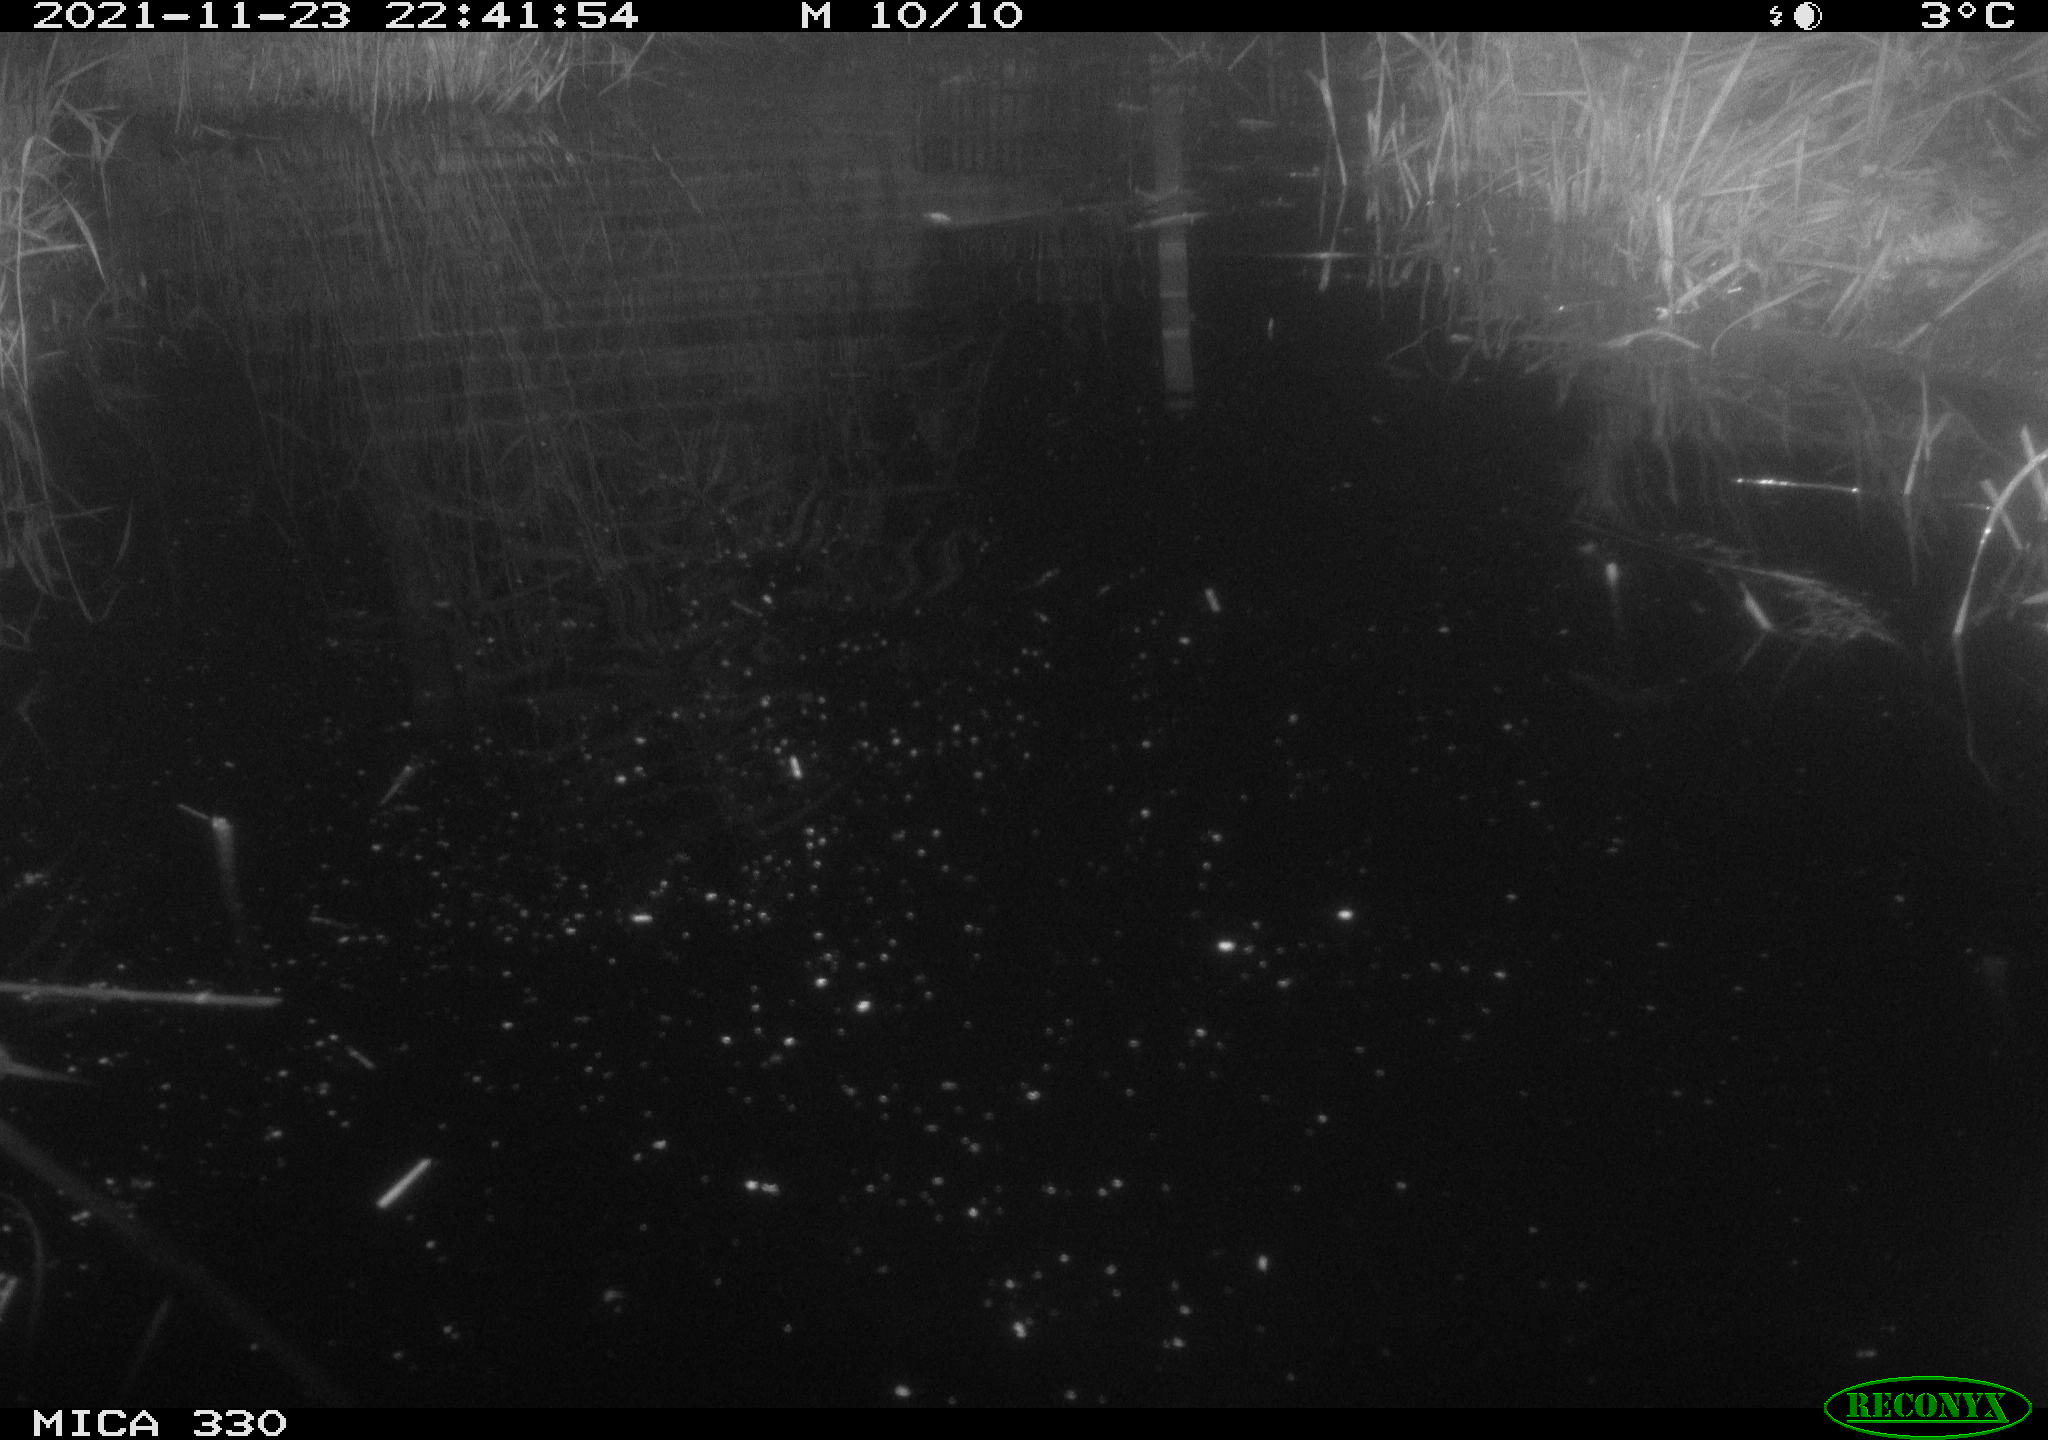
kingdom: Animalia
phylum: Chordata
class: Aves
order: Anseriformes
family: Anatidae
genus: Anas
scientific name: Anas platyrhynchos
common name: Mallard
